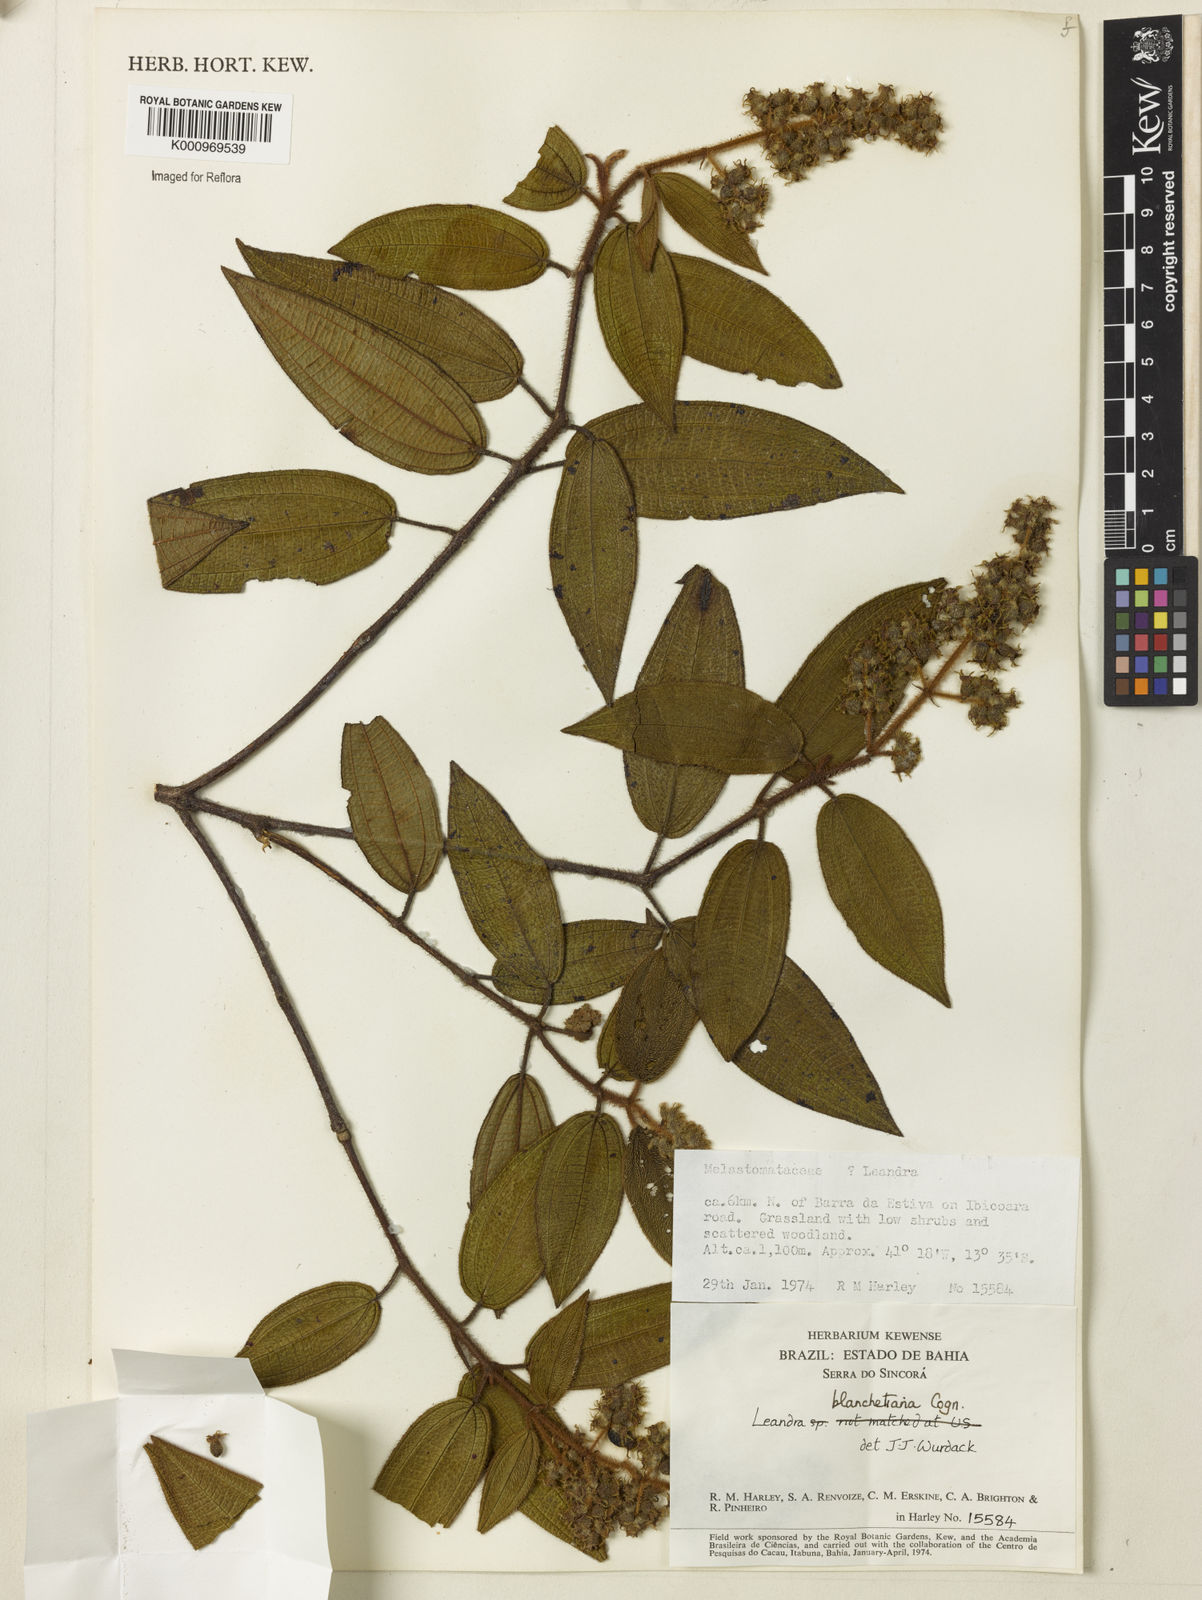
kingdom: Plantae
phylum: Tracheophyta
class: Magnoliopsida
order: Myrtales
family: Melastomataceae
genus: Miconia
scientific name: Miconia leablanchetiana
